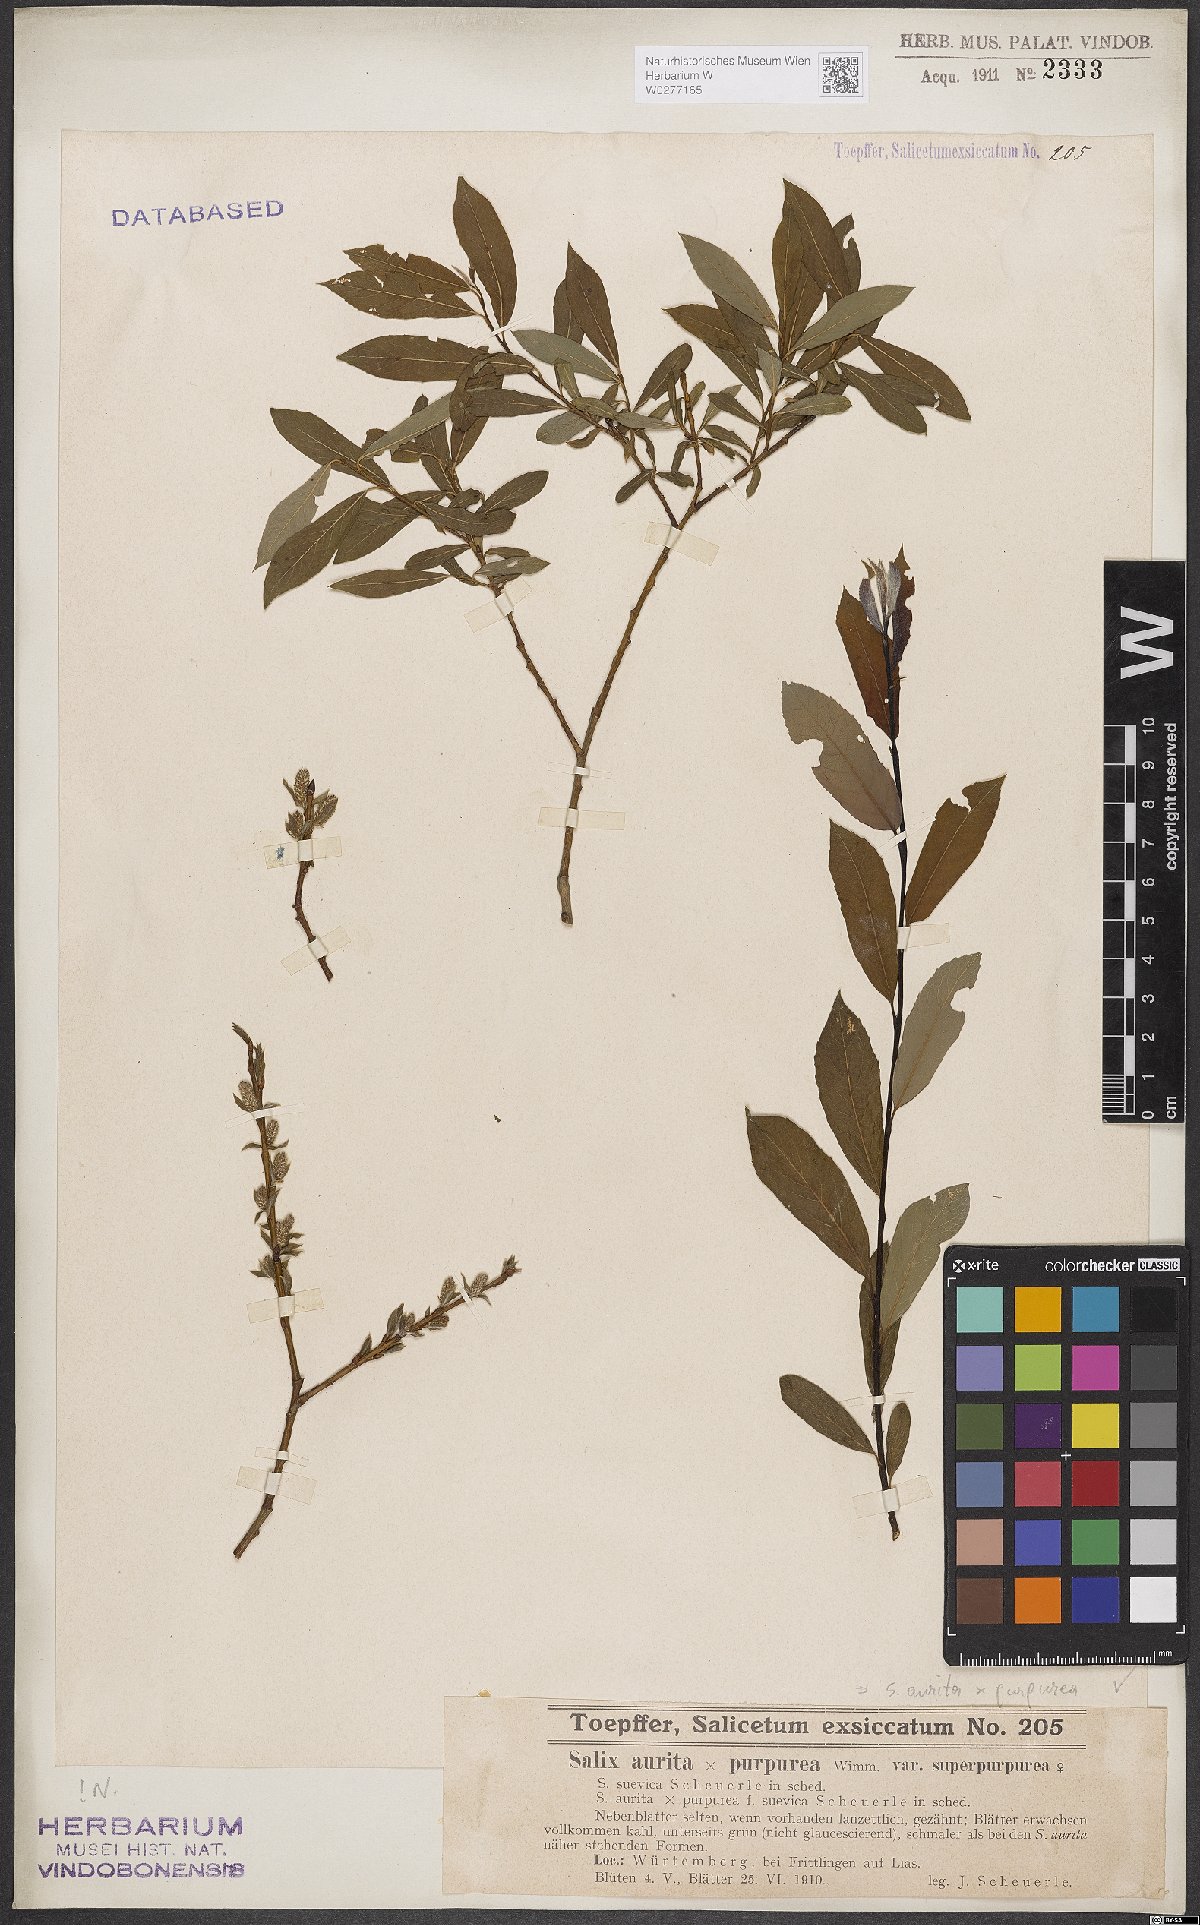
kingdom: Plantae
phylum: Tracheophyta
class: Magnoliopsida
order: Malpighiales
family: Salicaceae
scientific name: Salicaceae
